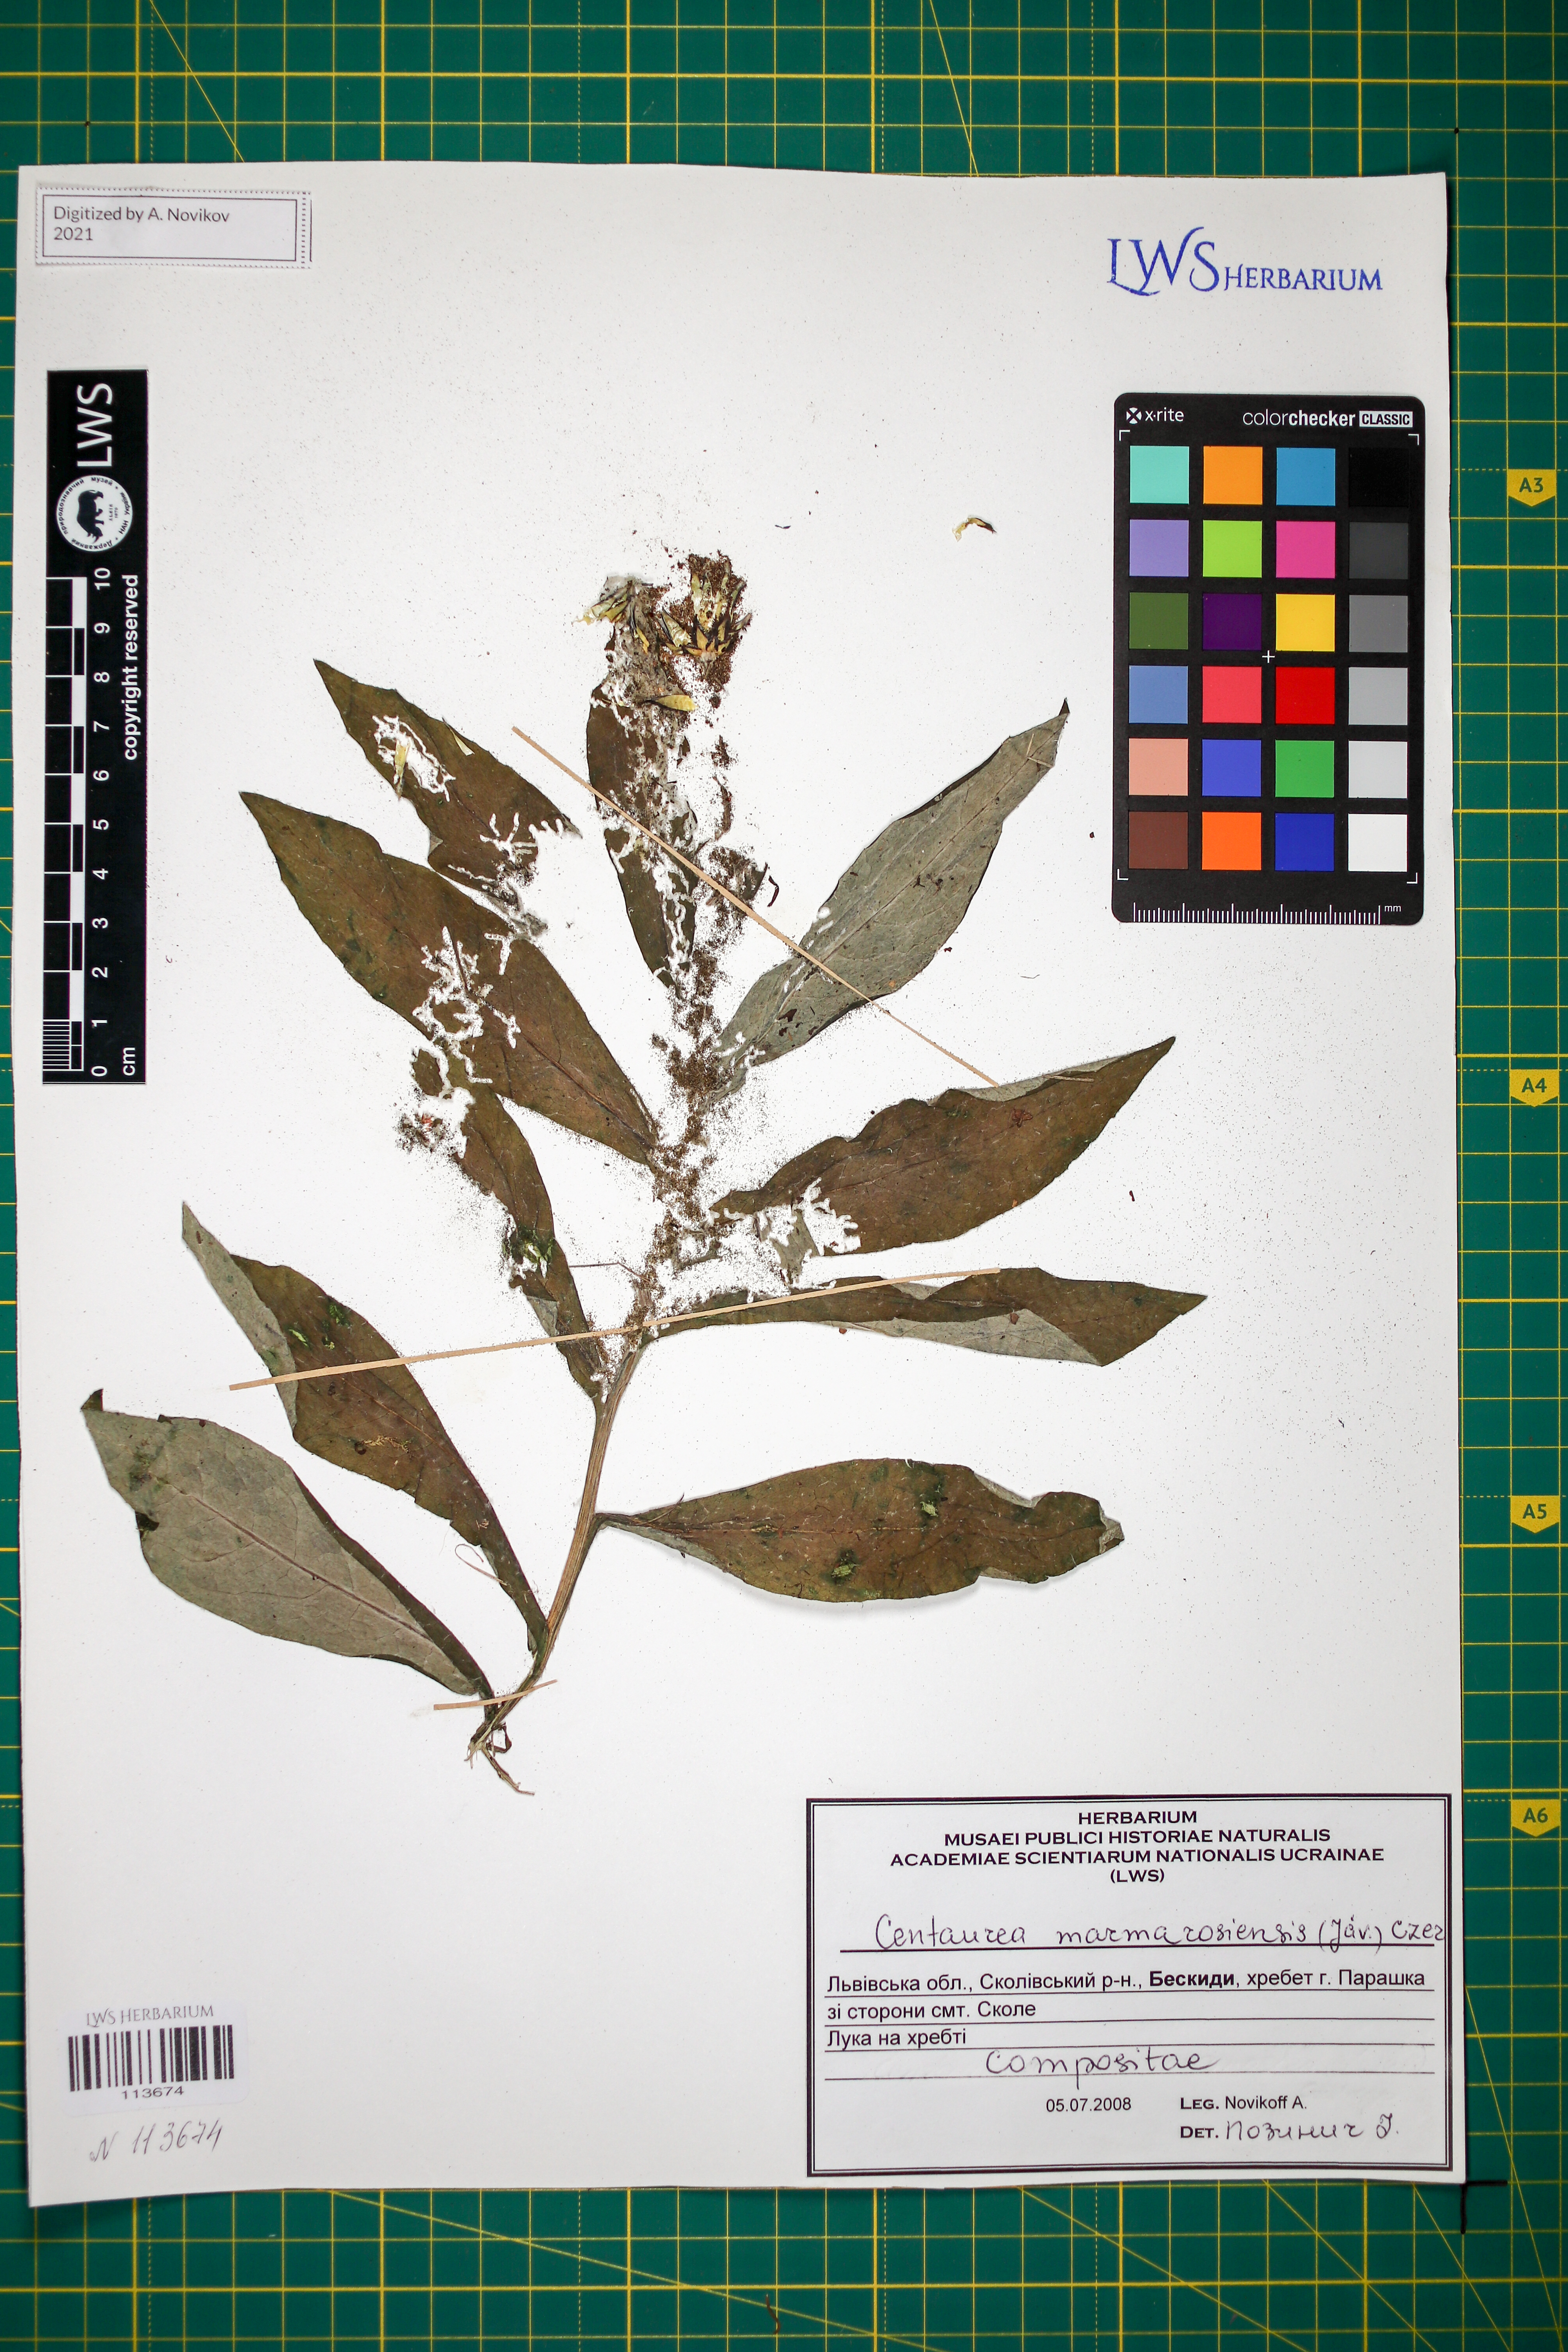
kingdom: Plantae
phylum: Tracheophyta
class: Magnoliopsida
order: Asterales
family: Asteraceae
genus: Centaurea
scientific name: Centaurea maramarosiensis
